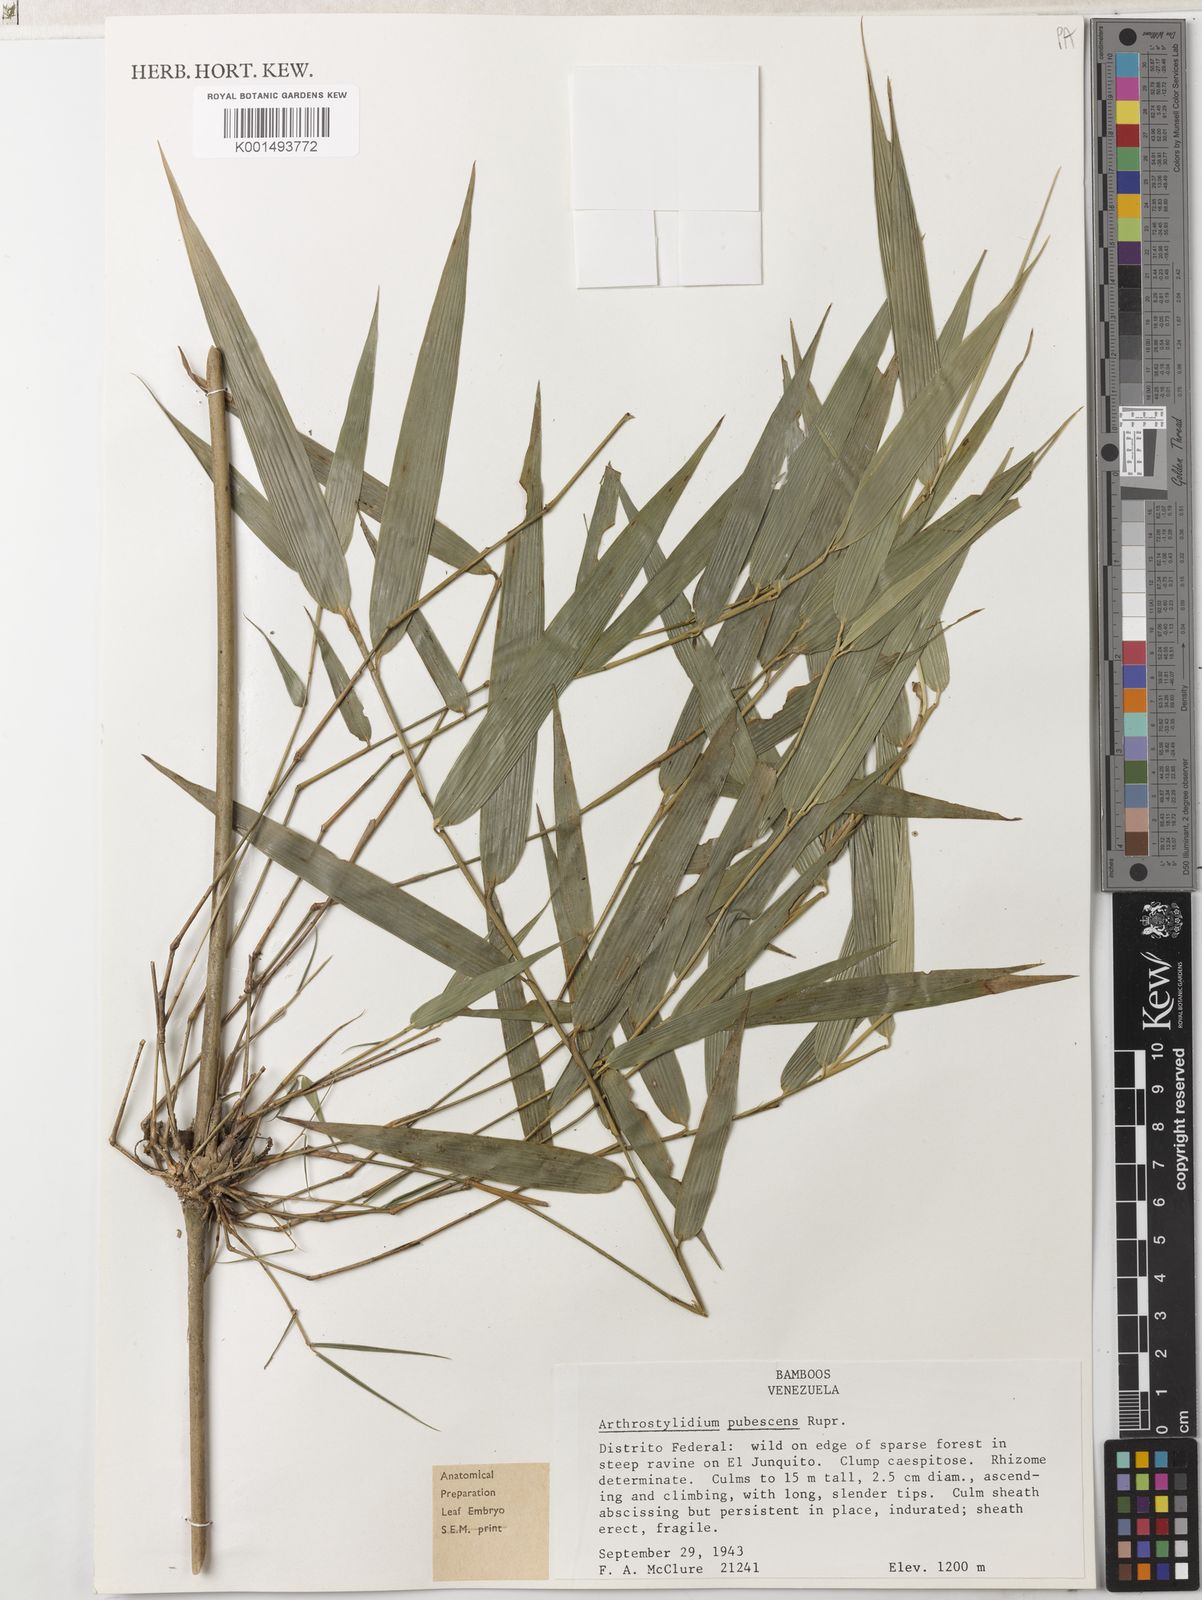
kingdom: Plantae
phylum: Tracheophyta
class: Liliopsida
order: Poales
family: Poaceae
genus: Arthrostylidium
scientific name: Arthrostylidium pubescens
